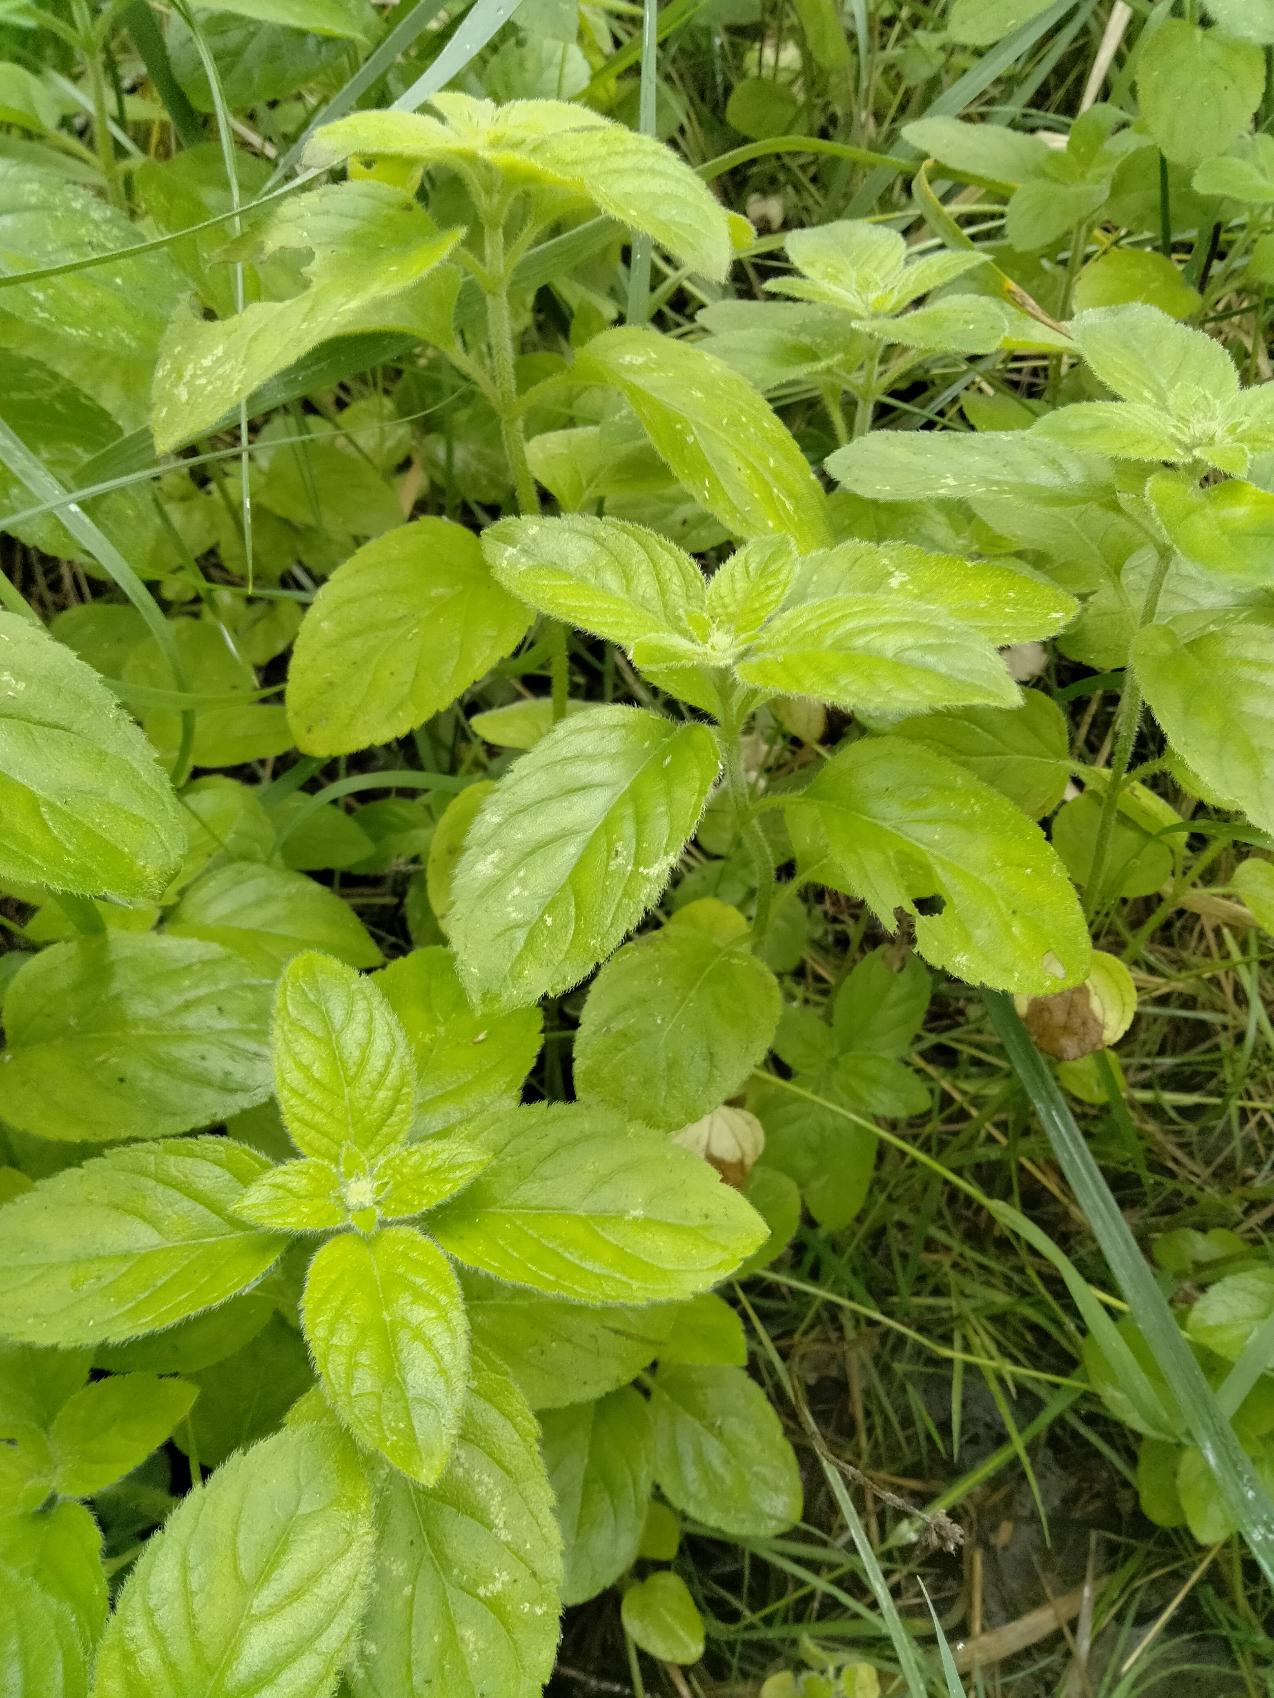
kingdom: Plantae
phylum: Tracheophyta
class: Magnoliopsida
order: Lamiales
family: Lamiaceae
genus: Mentha
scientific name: Mentha aquatica
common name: Vand-mynte
